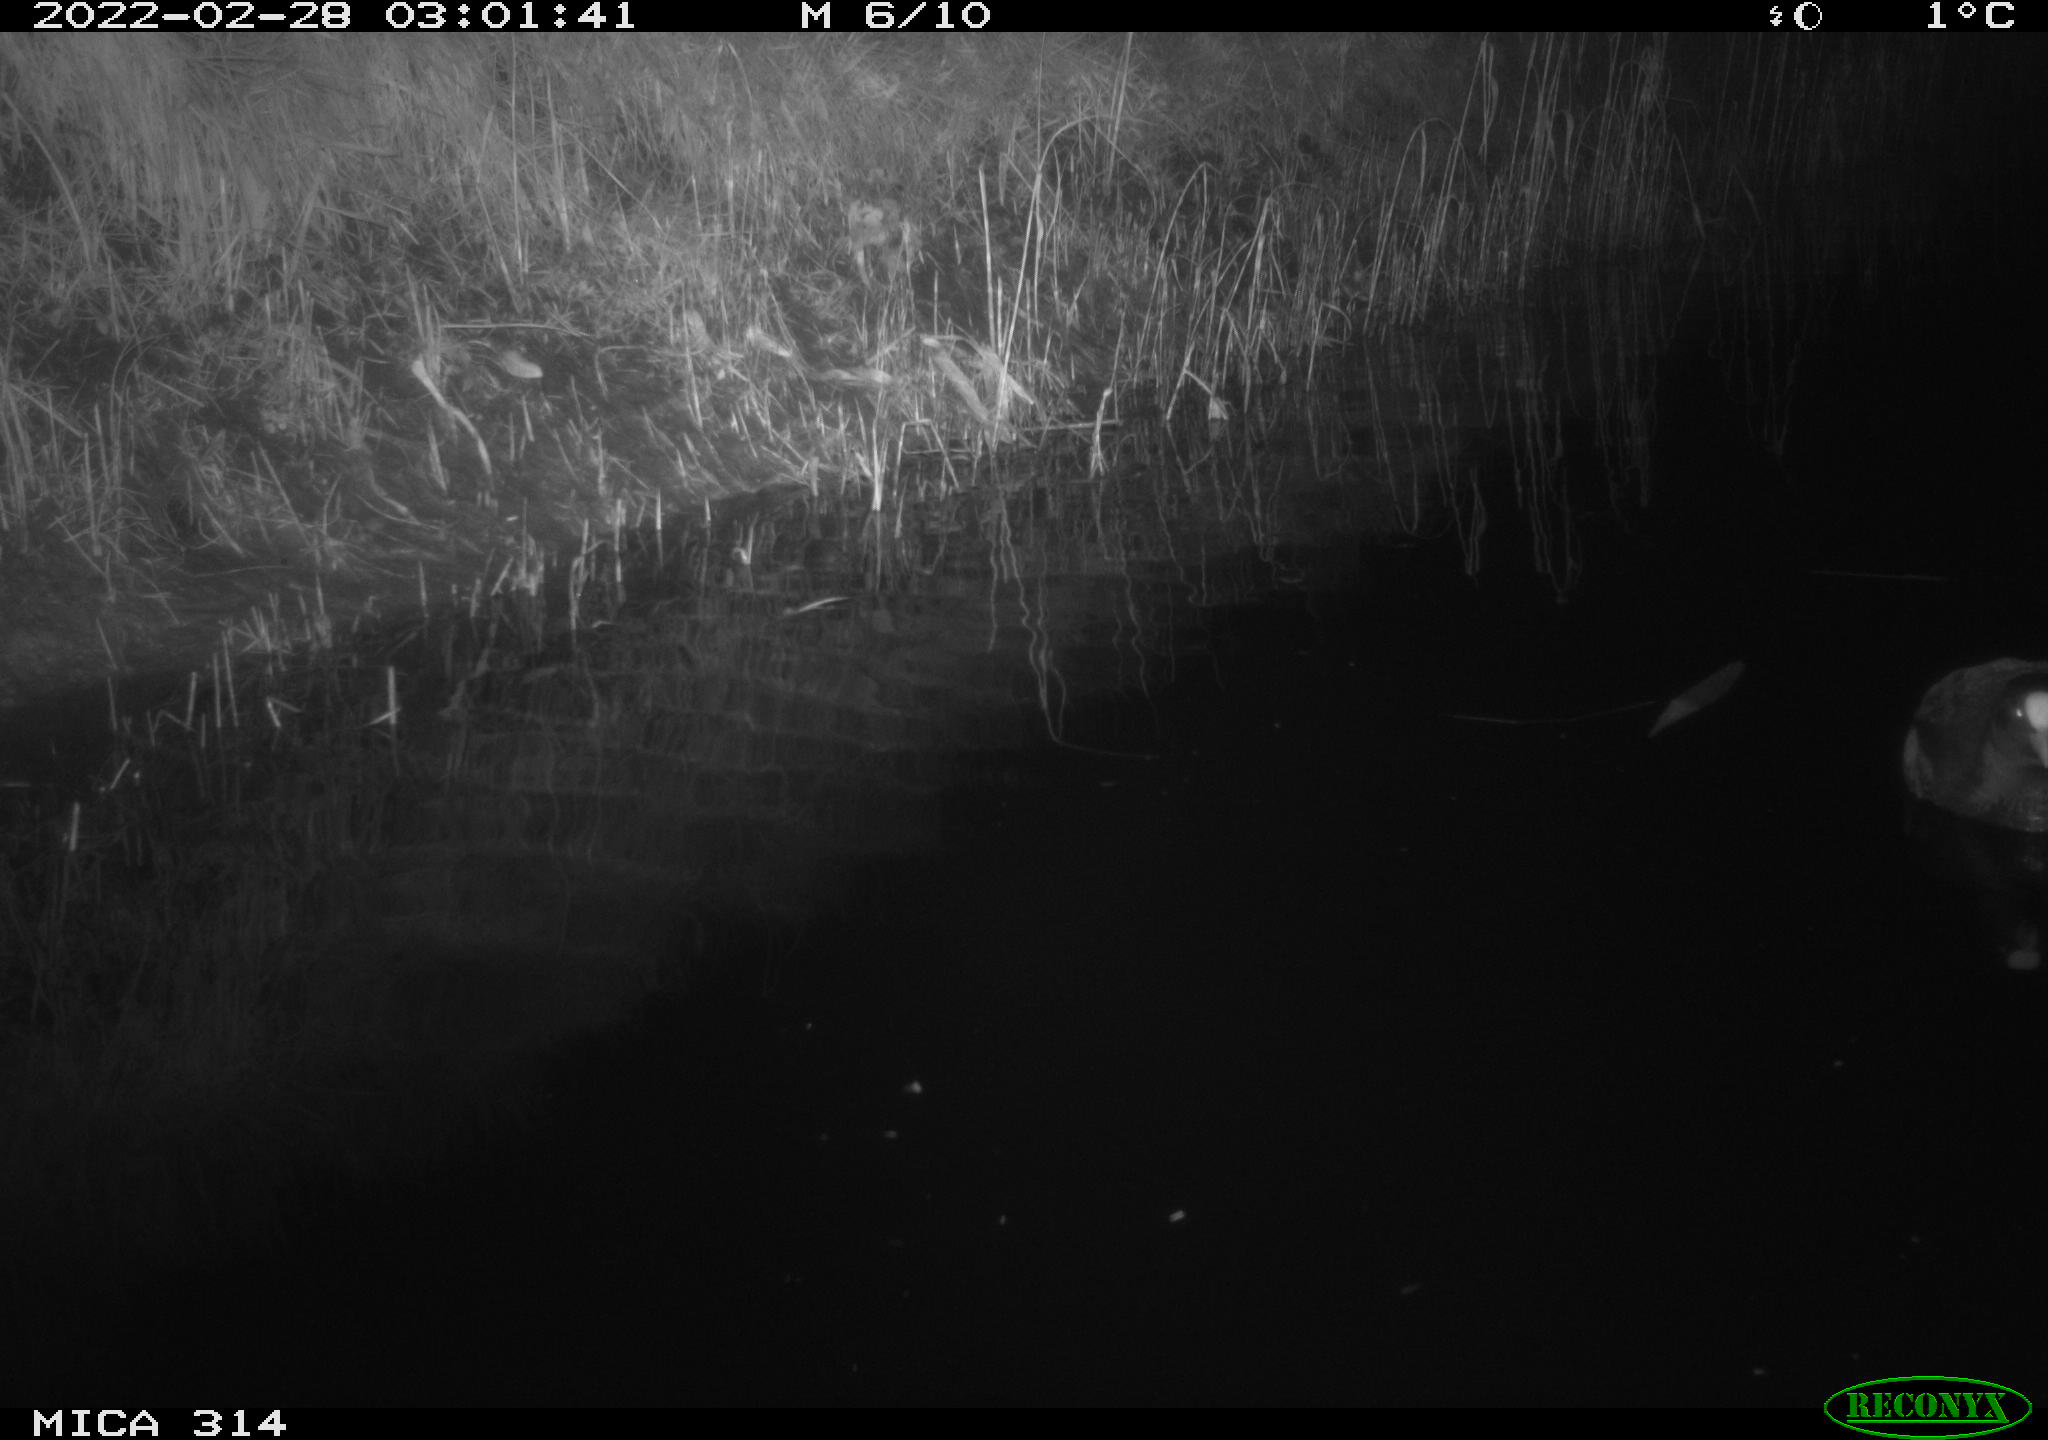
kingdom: Animalia
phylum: Chordata
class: Aves
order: Gruiformes
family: Rallidae
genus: Fulica
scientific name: Fulica atra
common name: Eurasian coot
